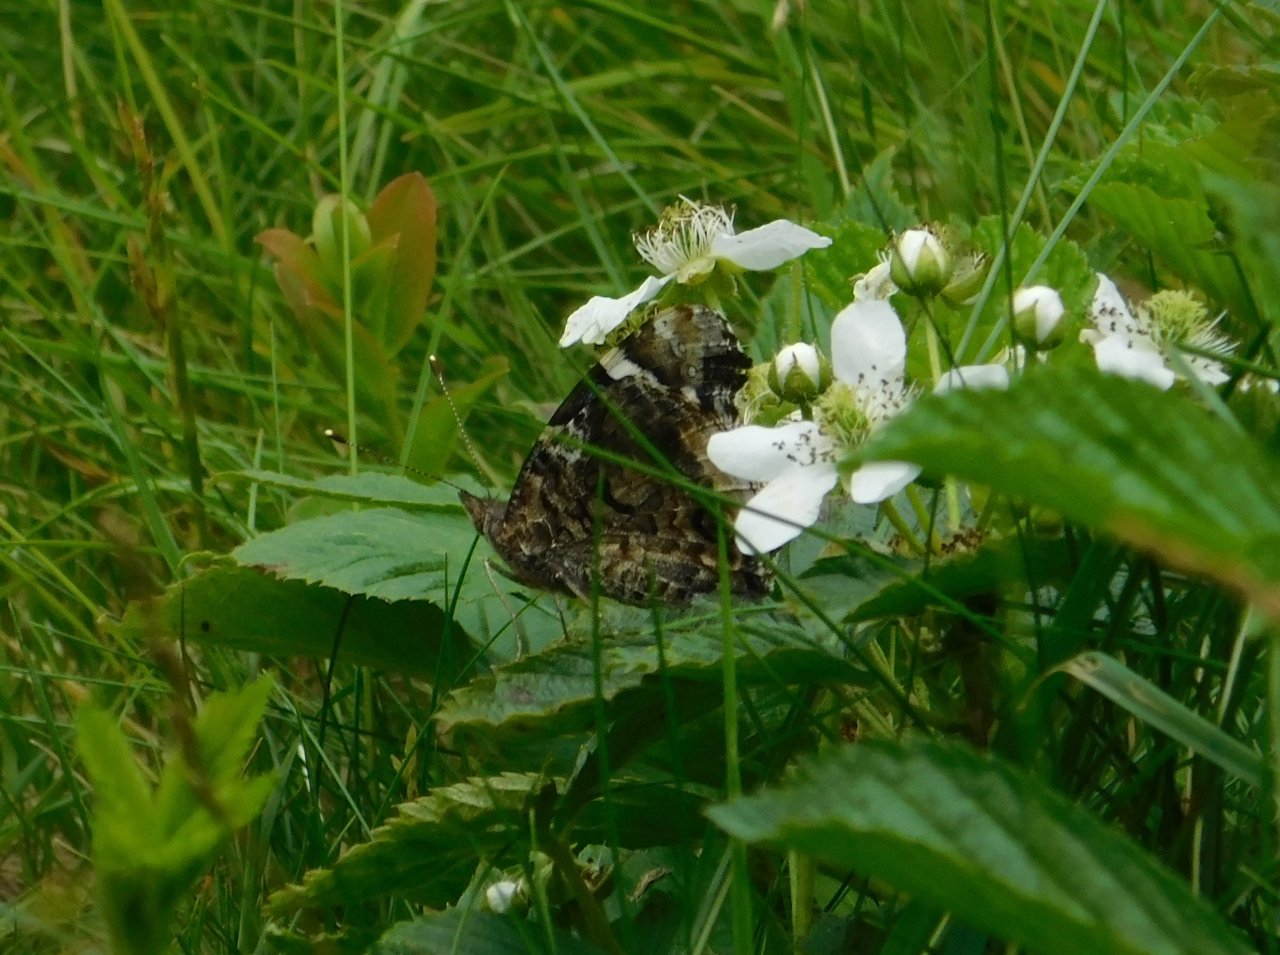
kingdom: Animalia
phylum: Arthropoda
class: Insecta
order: Lepidoptera
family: Nymphalidae
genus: Vanessa
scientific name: Vanessa atalanta
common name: Red Admiral
